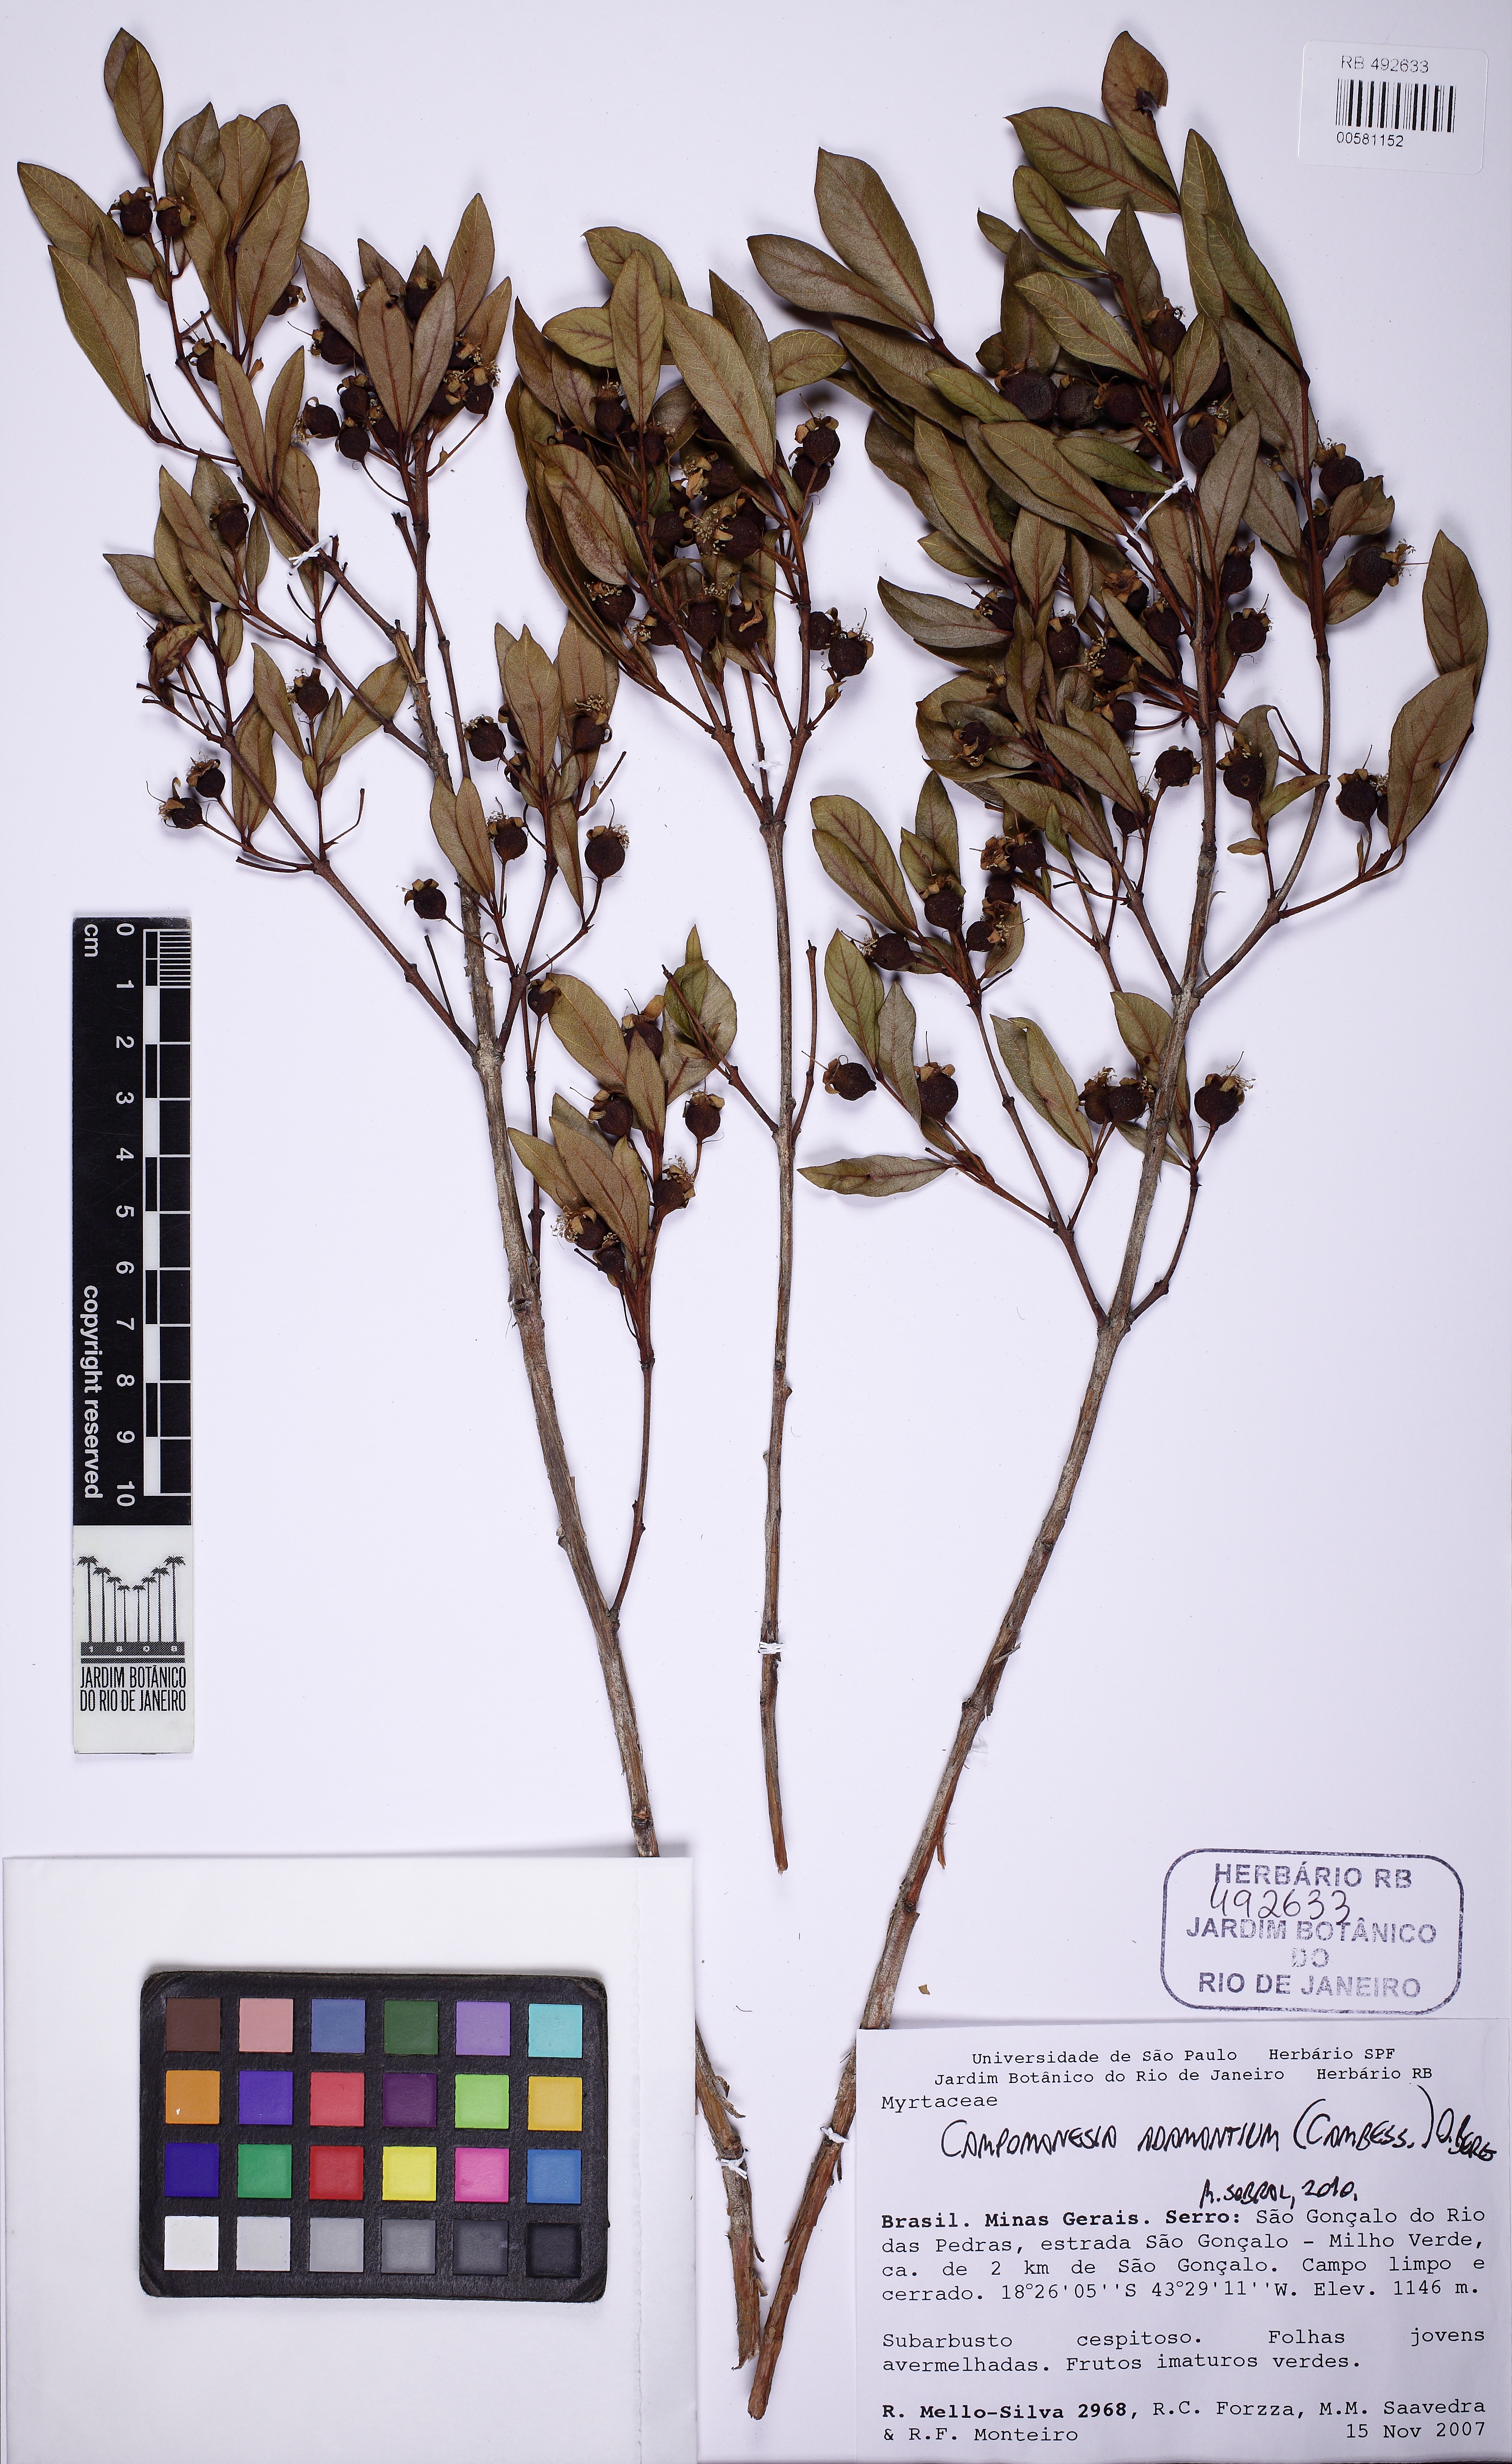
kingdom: Plantae
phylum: Tracheophyta
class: Magnoliopsida
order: Myrtales
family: Myrtaceae
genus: Campomanesia
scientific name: Campomanesia adamantium
